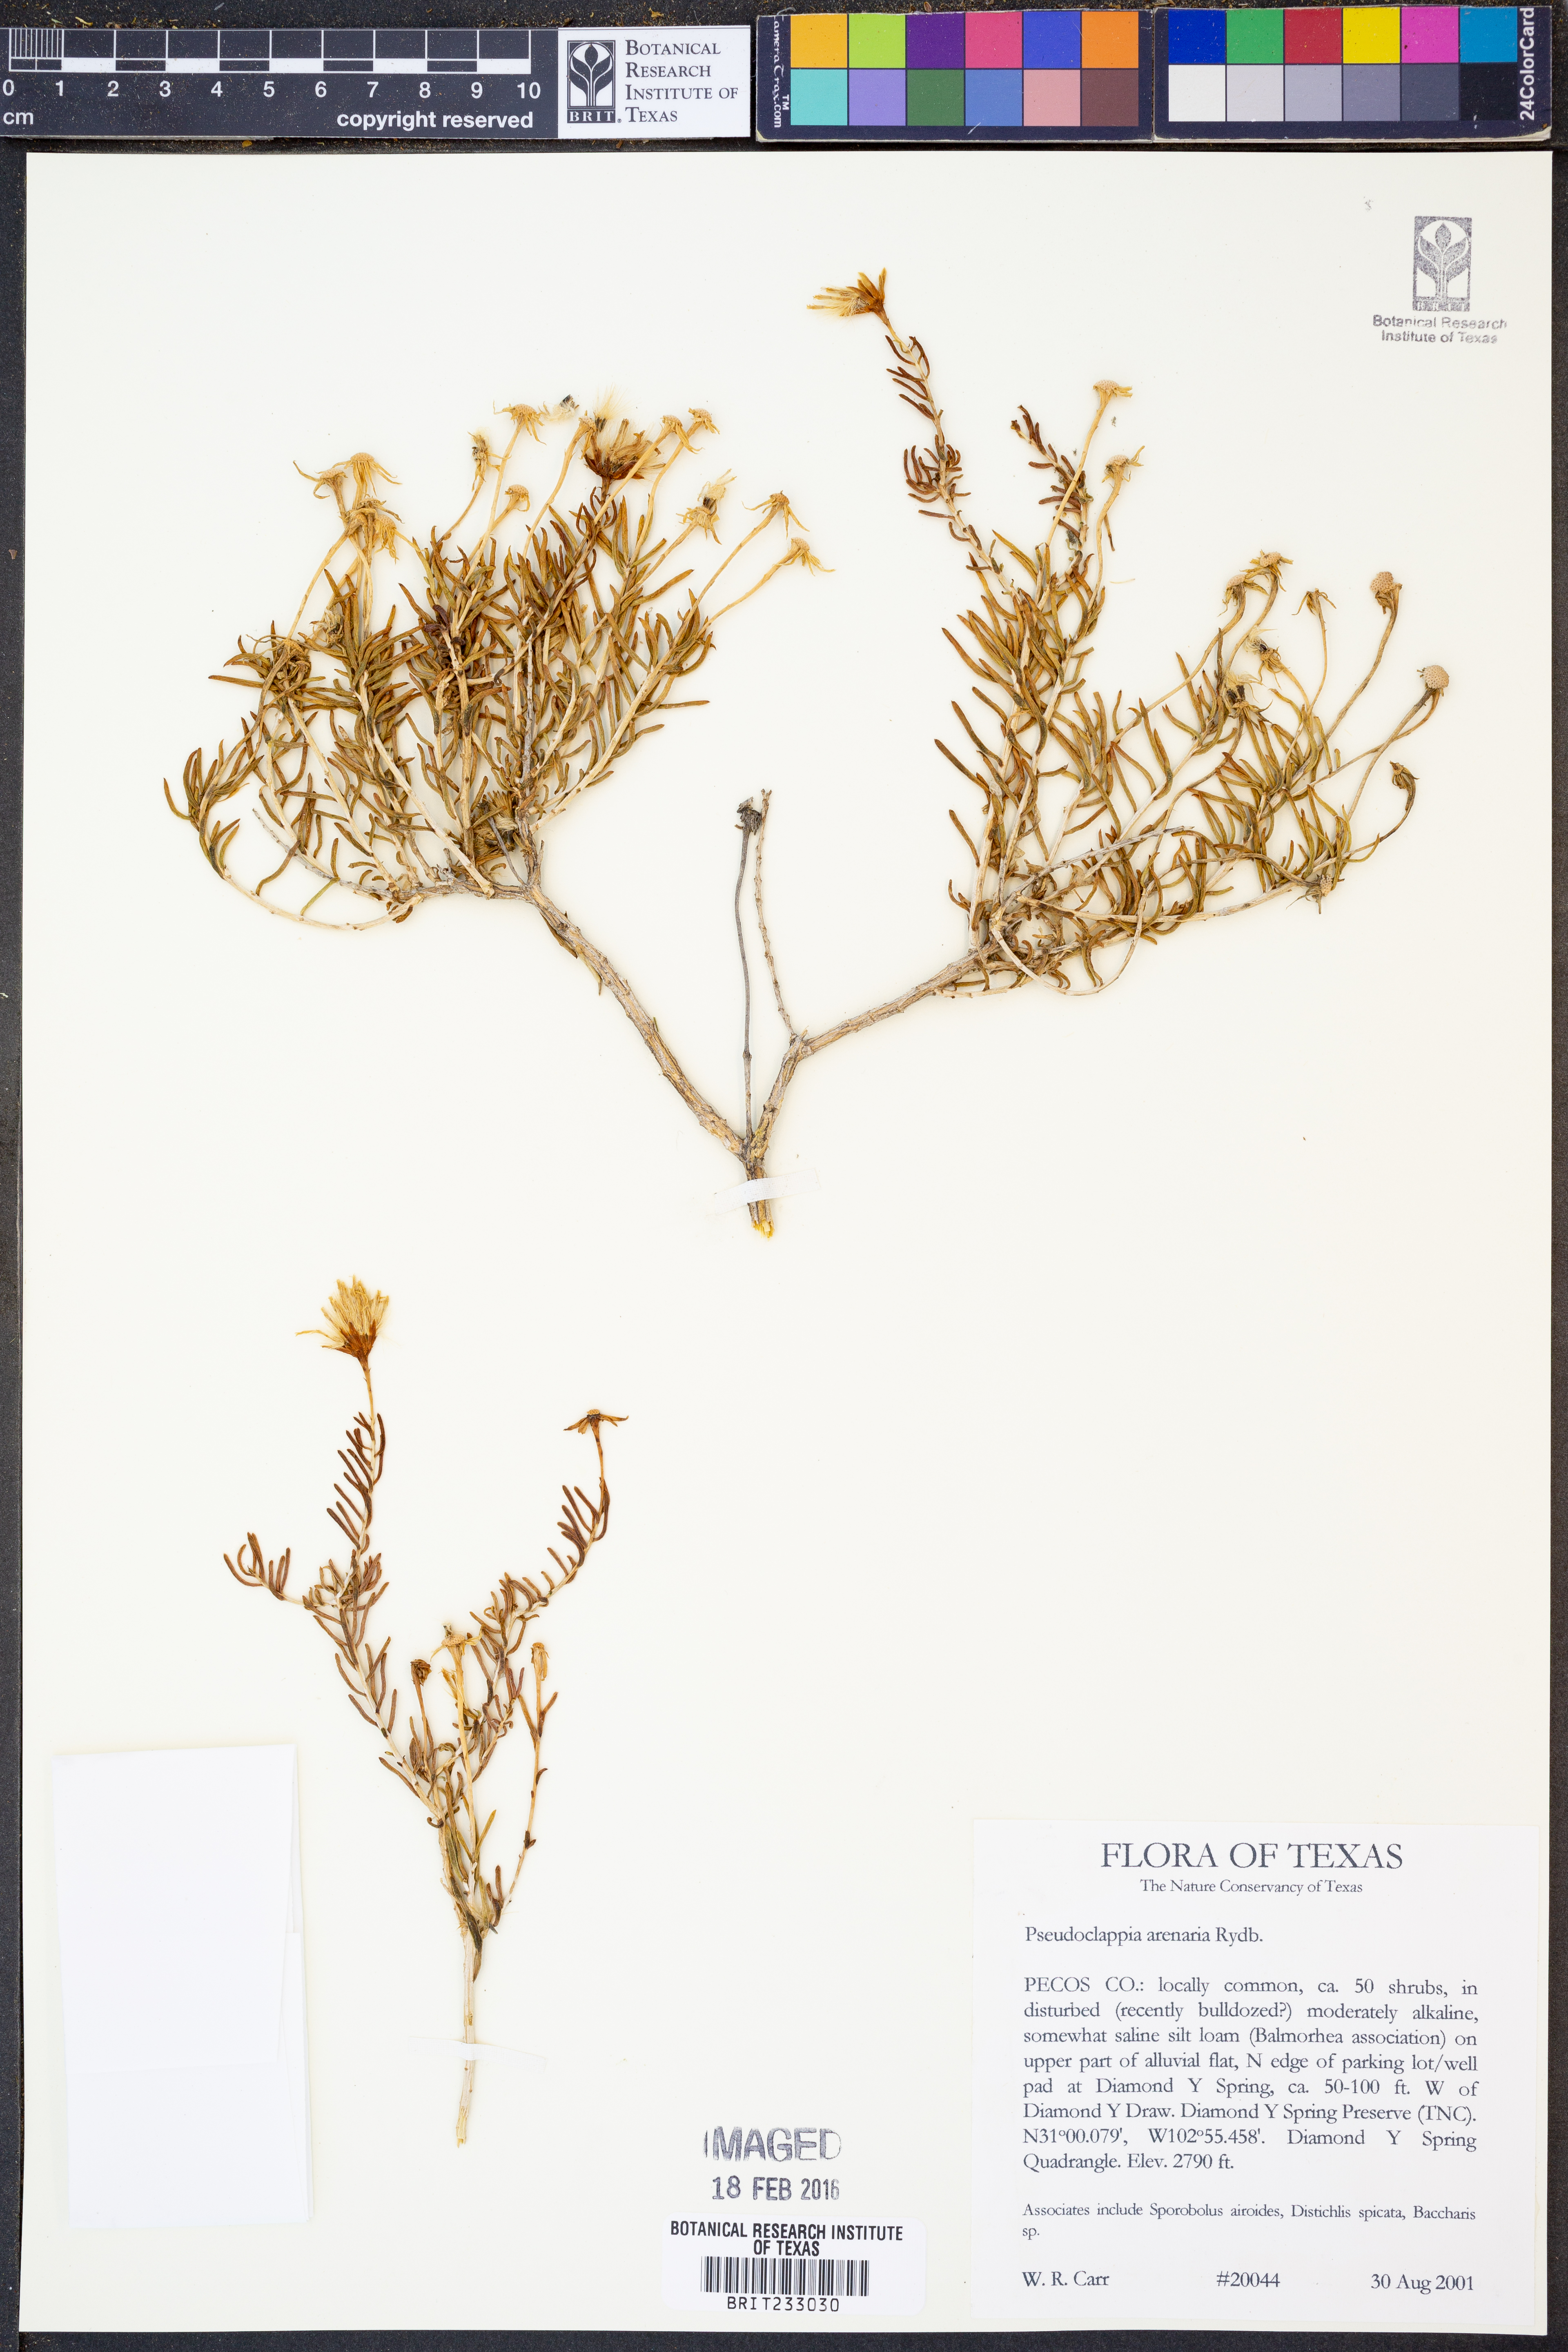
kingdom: Plantae
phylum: Tracheophyta
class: Magnoliopsida
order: Asterales
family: Asteraceae
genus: Pseudoclappia
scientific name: Pseudoclappia arenaria
